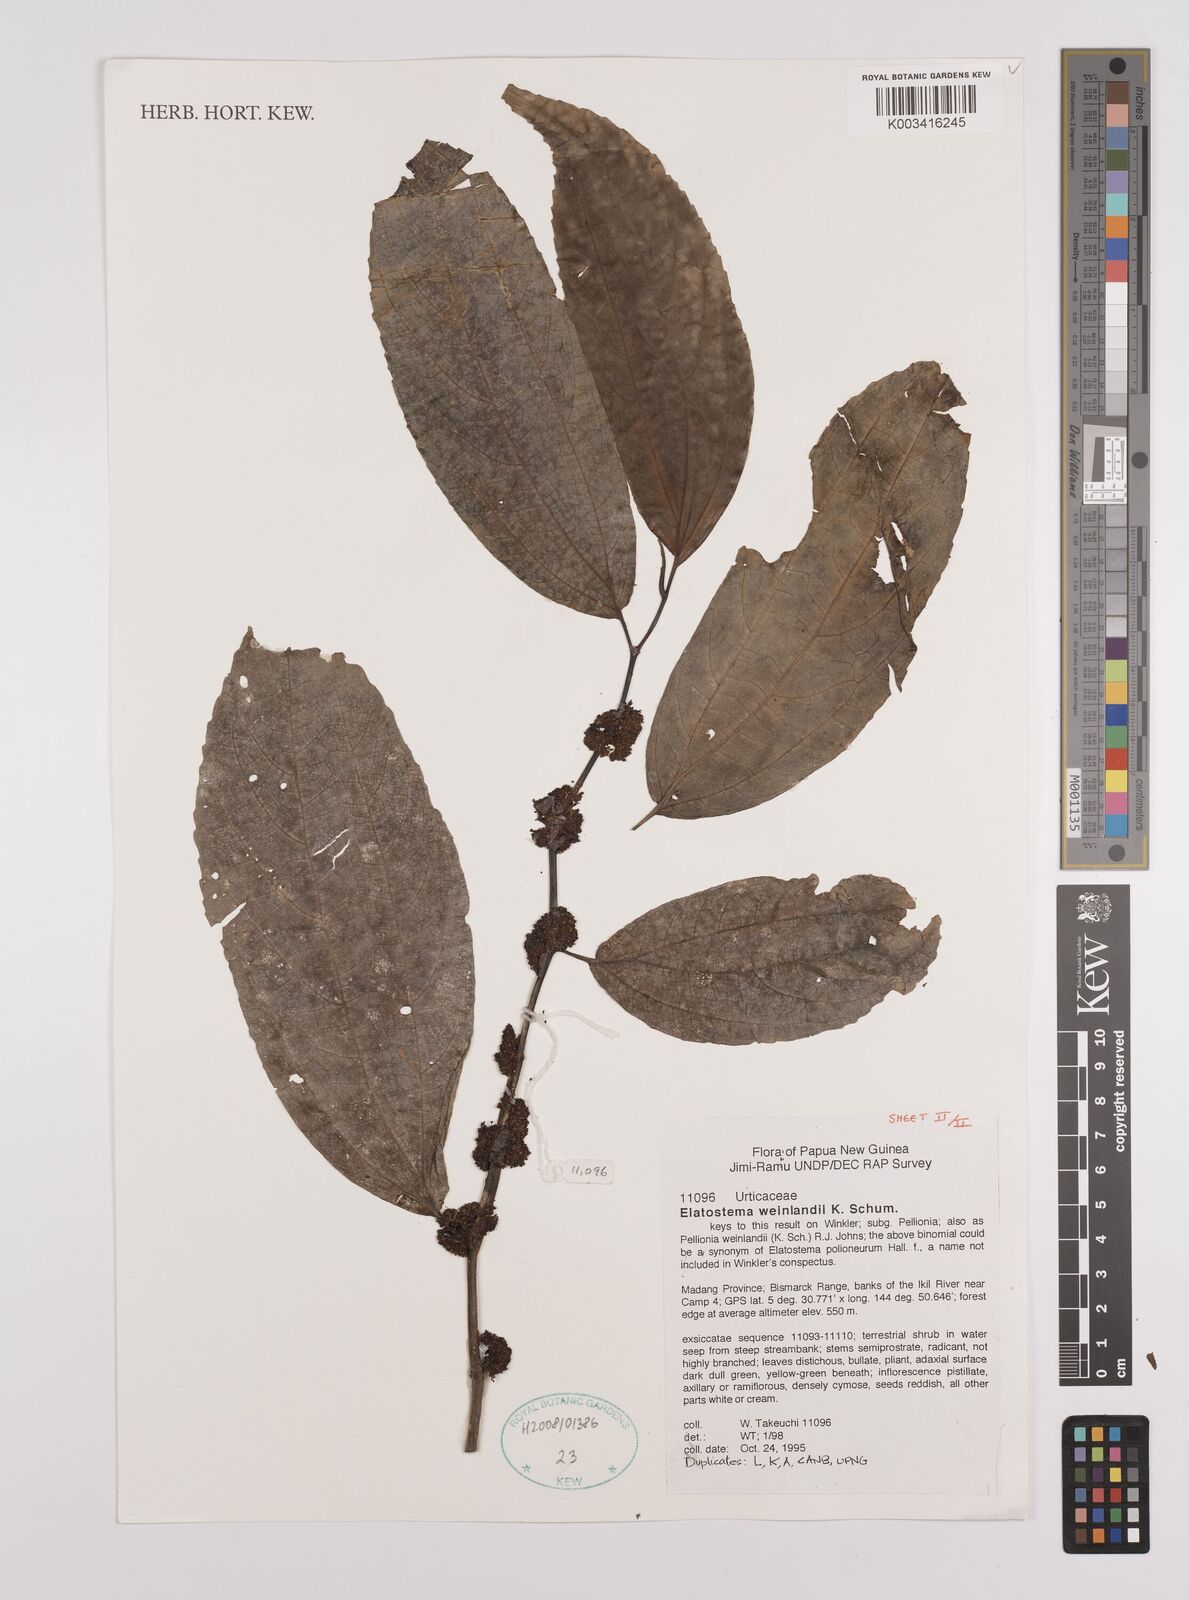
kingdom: Plantae
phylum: Tracheophyta
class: Magnoliopsida
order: Rosales
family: Urticaceae
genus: Elatostema
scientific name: Elatostema weinlandii
